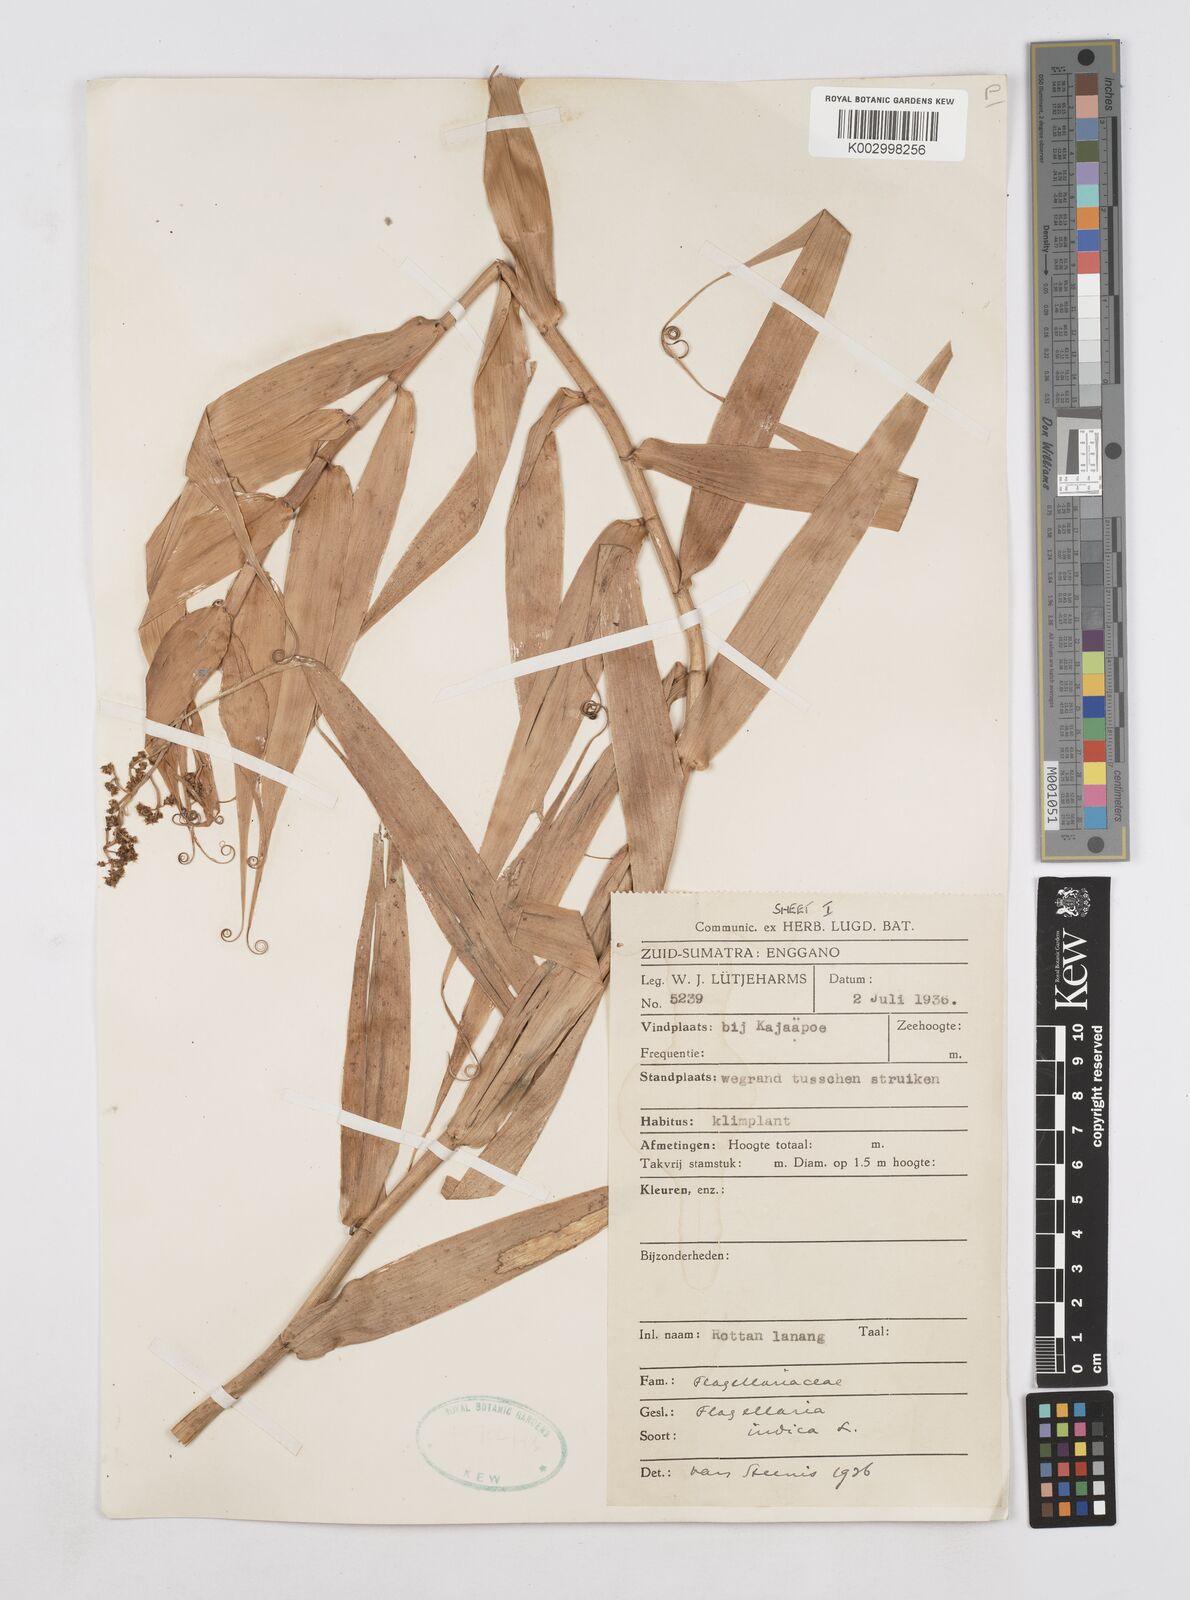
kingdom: Plantae
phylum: Tracheophyta
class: Liliopsida
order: Poales
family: Flagellariaceae
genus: Flagellaria
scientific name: Flagellaria indica
